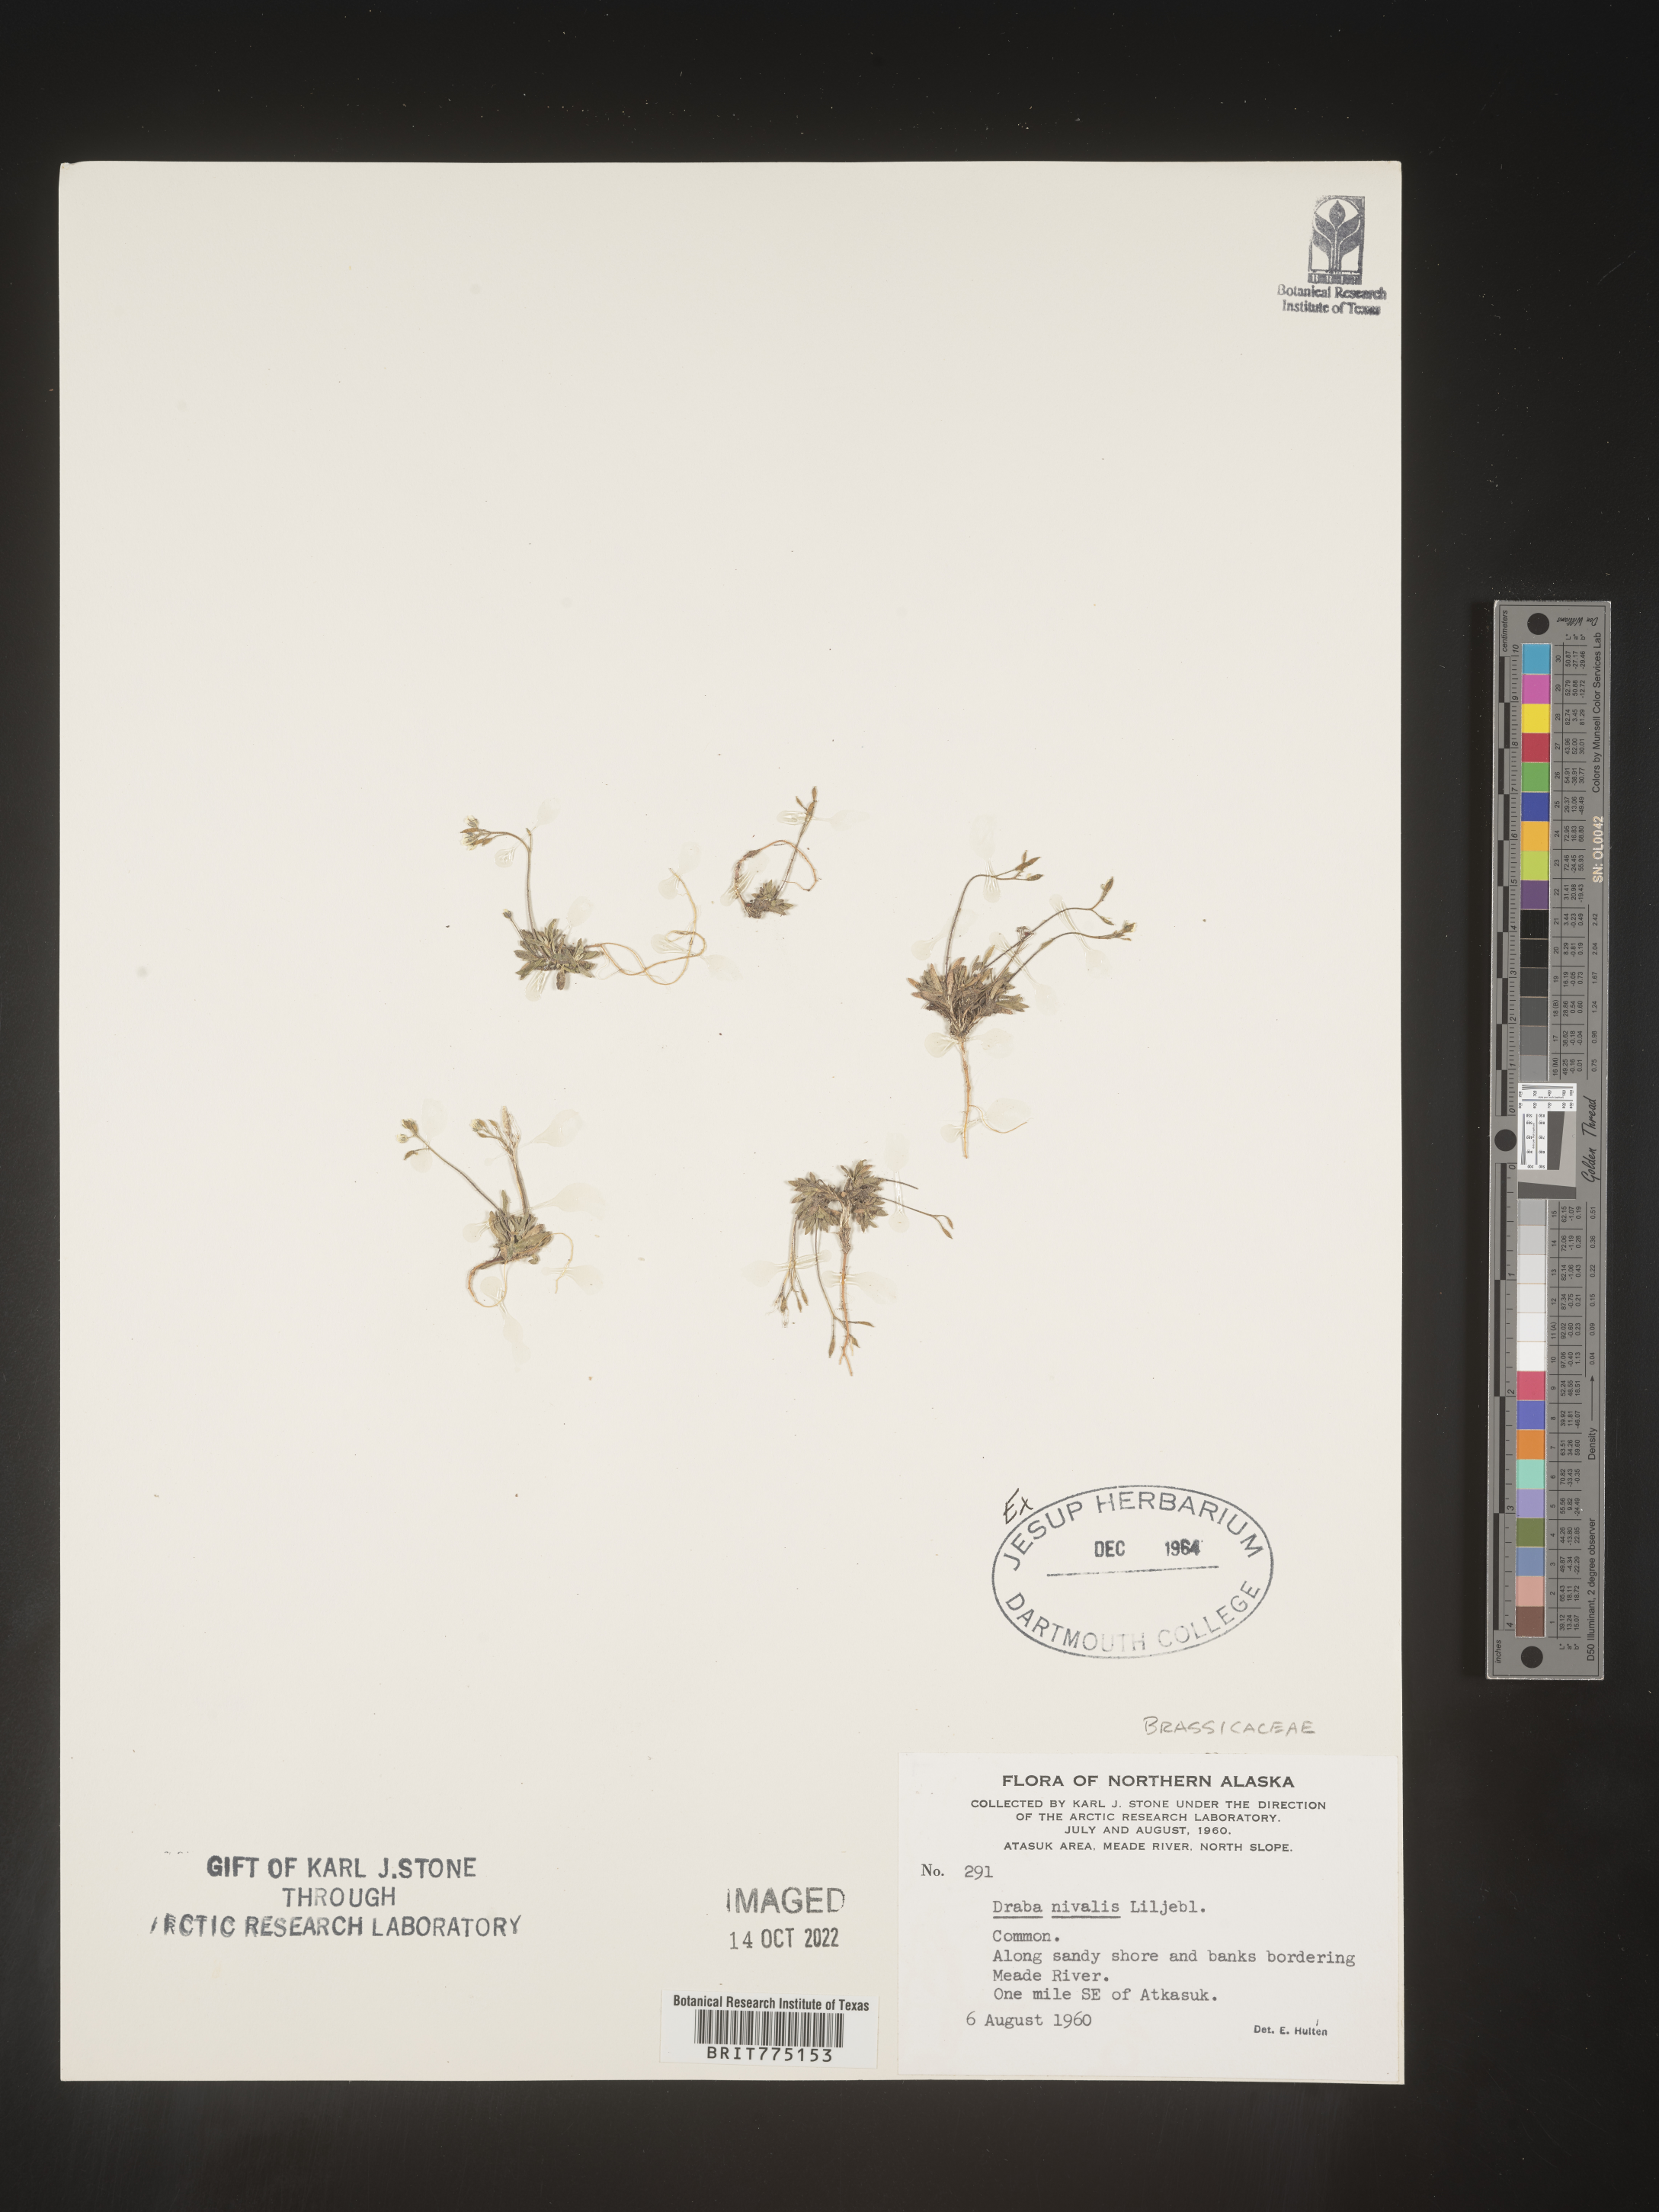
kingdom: Plantae
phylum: Tracheophyta
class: Magnoliopsida
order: Brassicales
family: Brassicaceae
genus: Draba
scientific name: Draba
